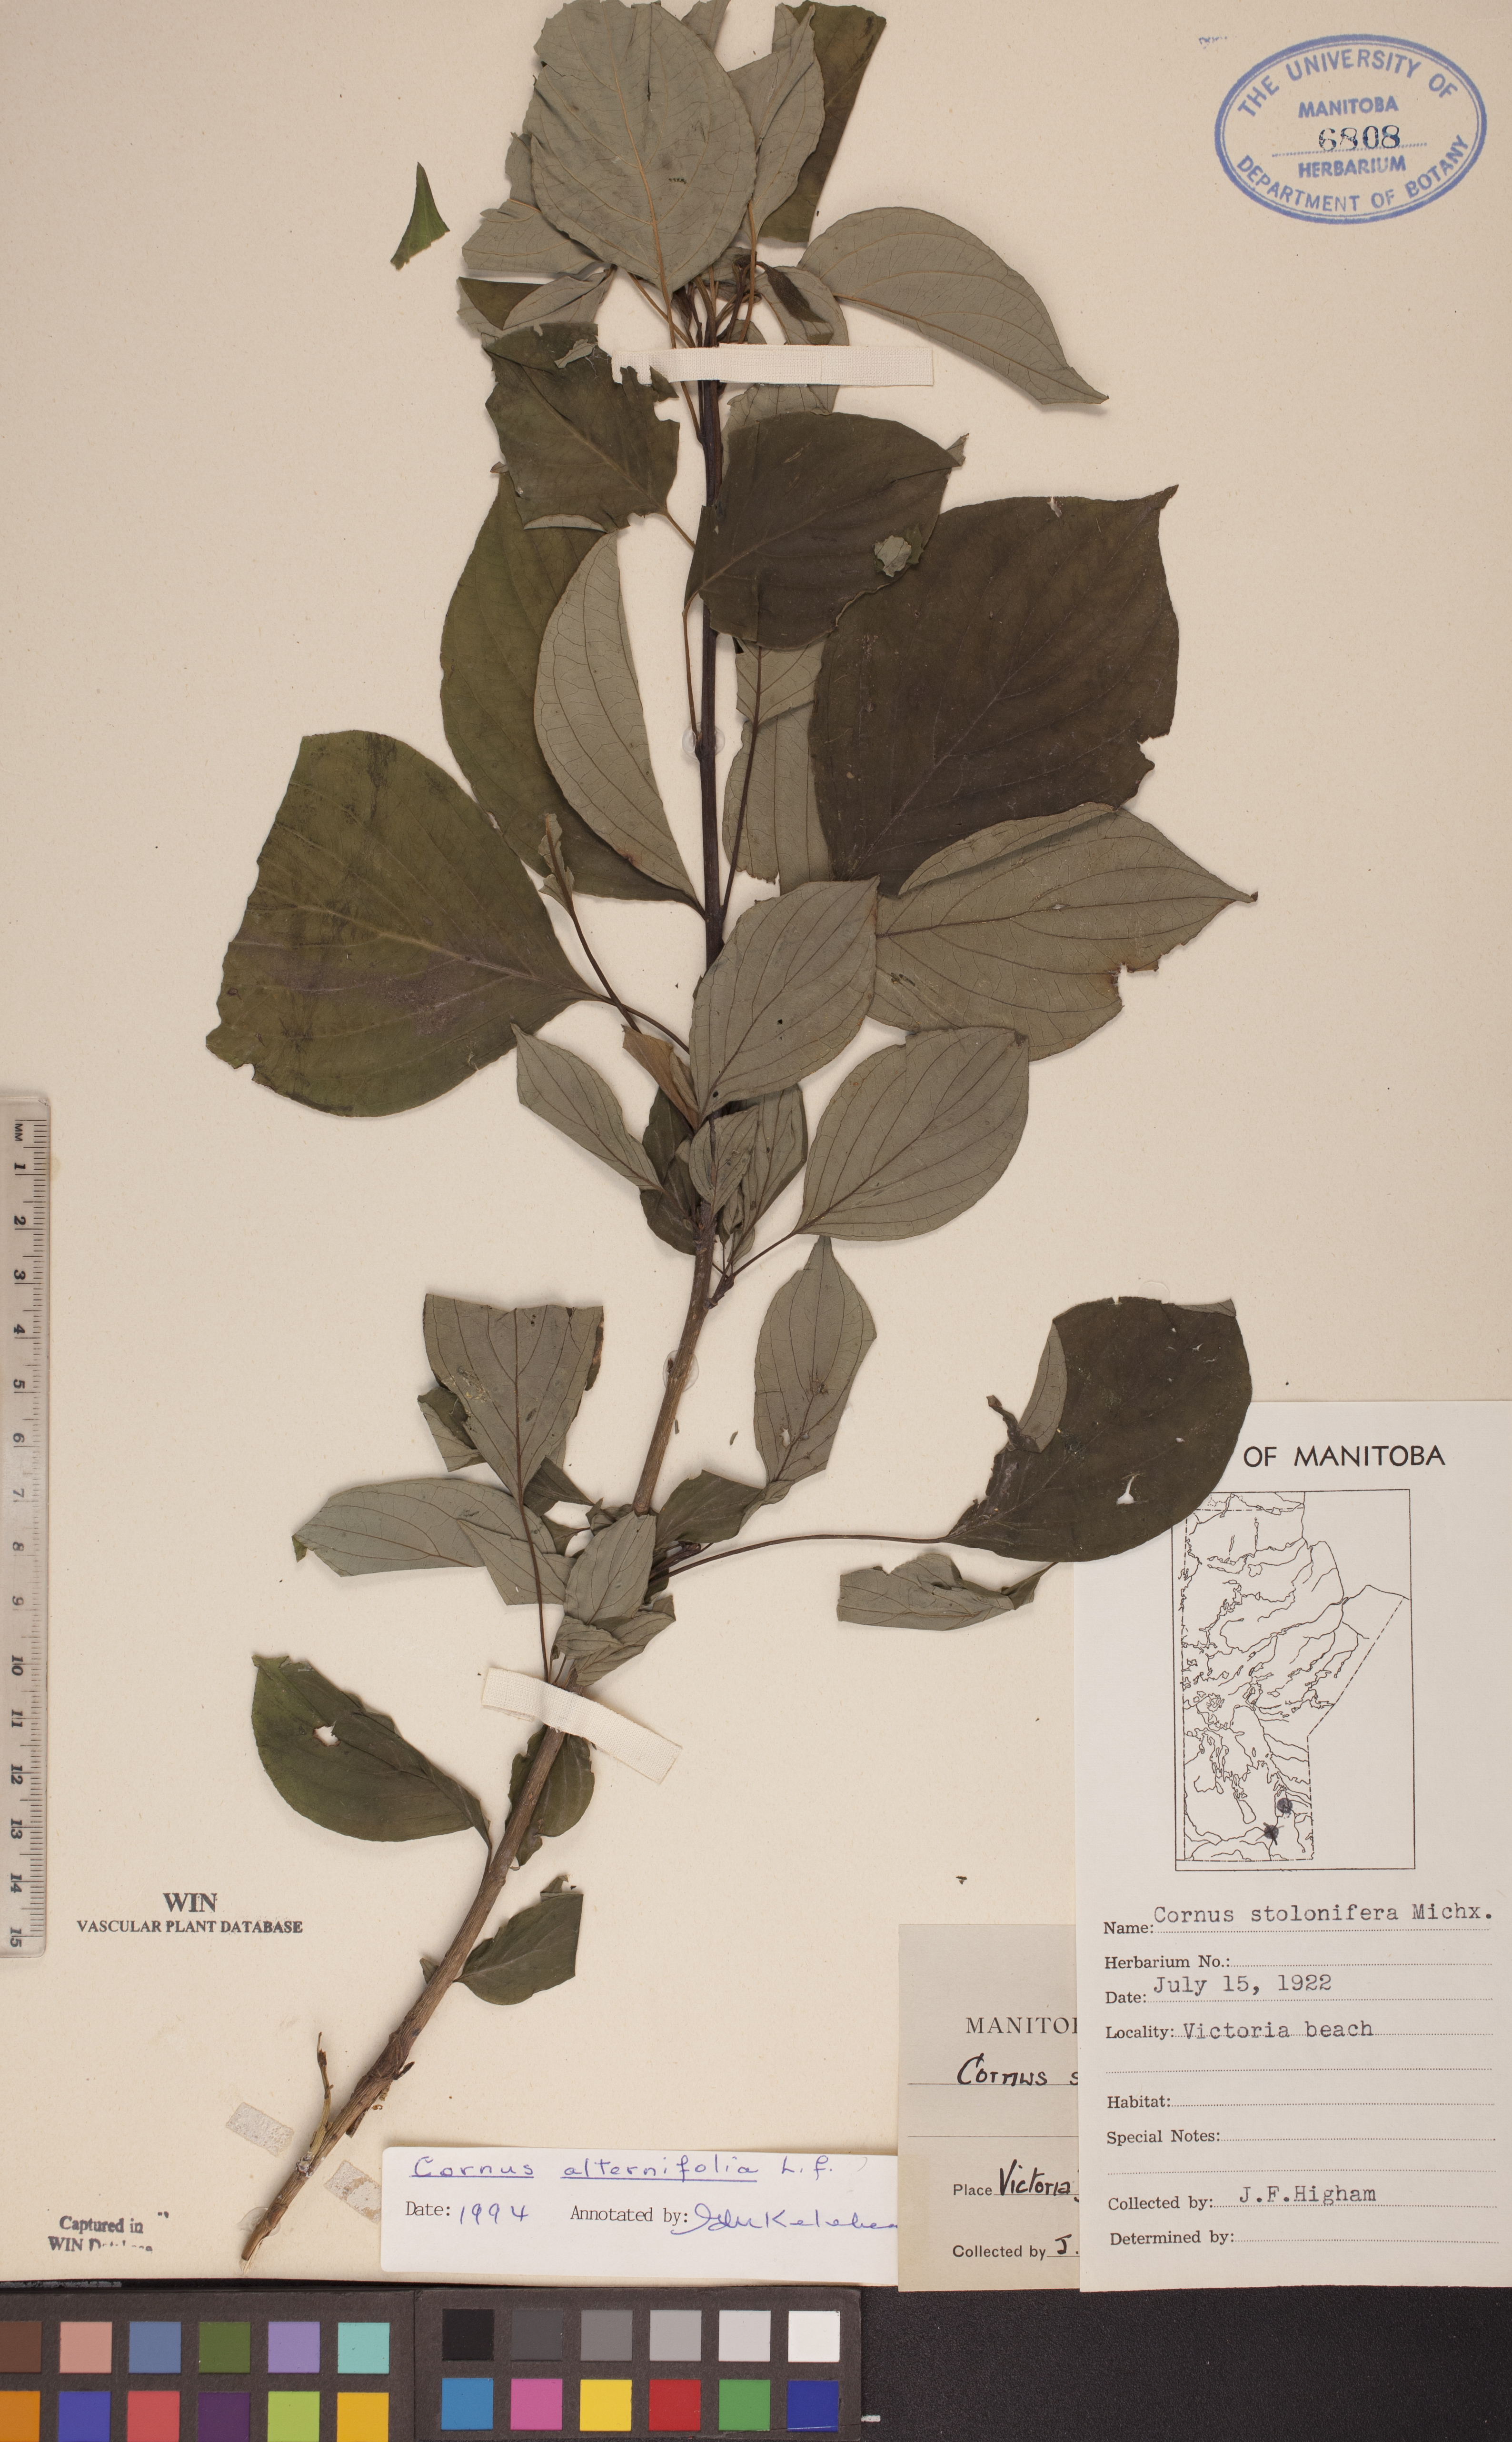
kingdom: Plantae
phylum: Tracheophyta
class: Magnoliopsida
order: Cornales
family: Cornaceae
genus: Cornus
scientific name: Cornus alternifolia
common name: Pagoda dogwood
